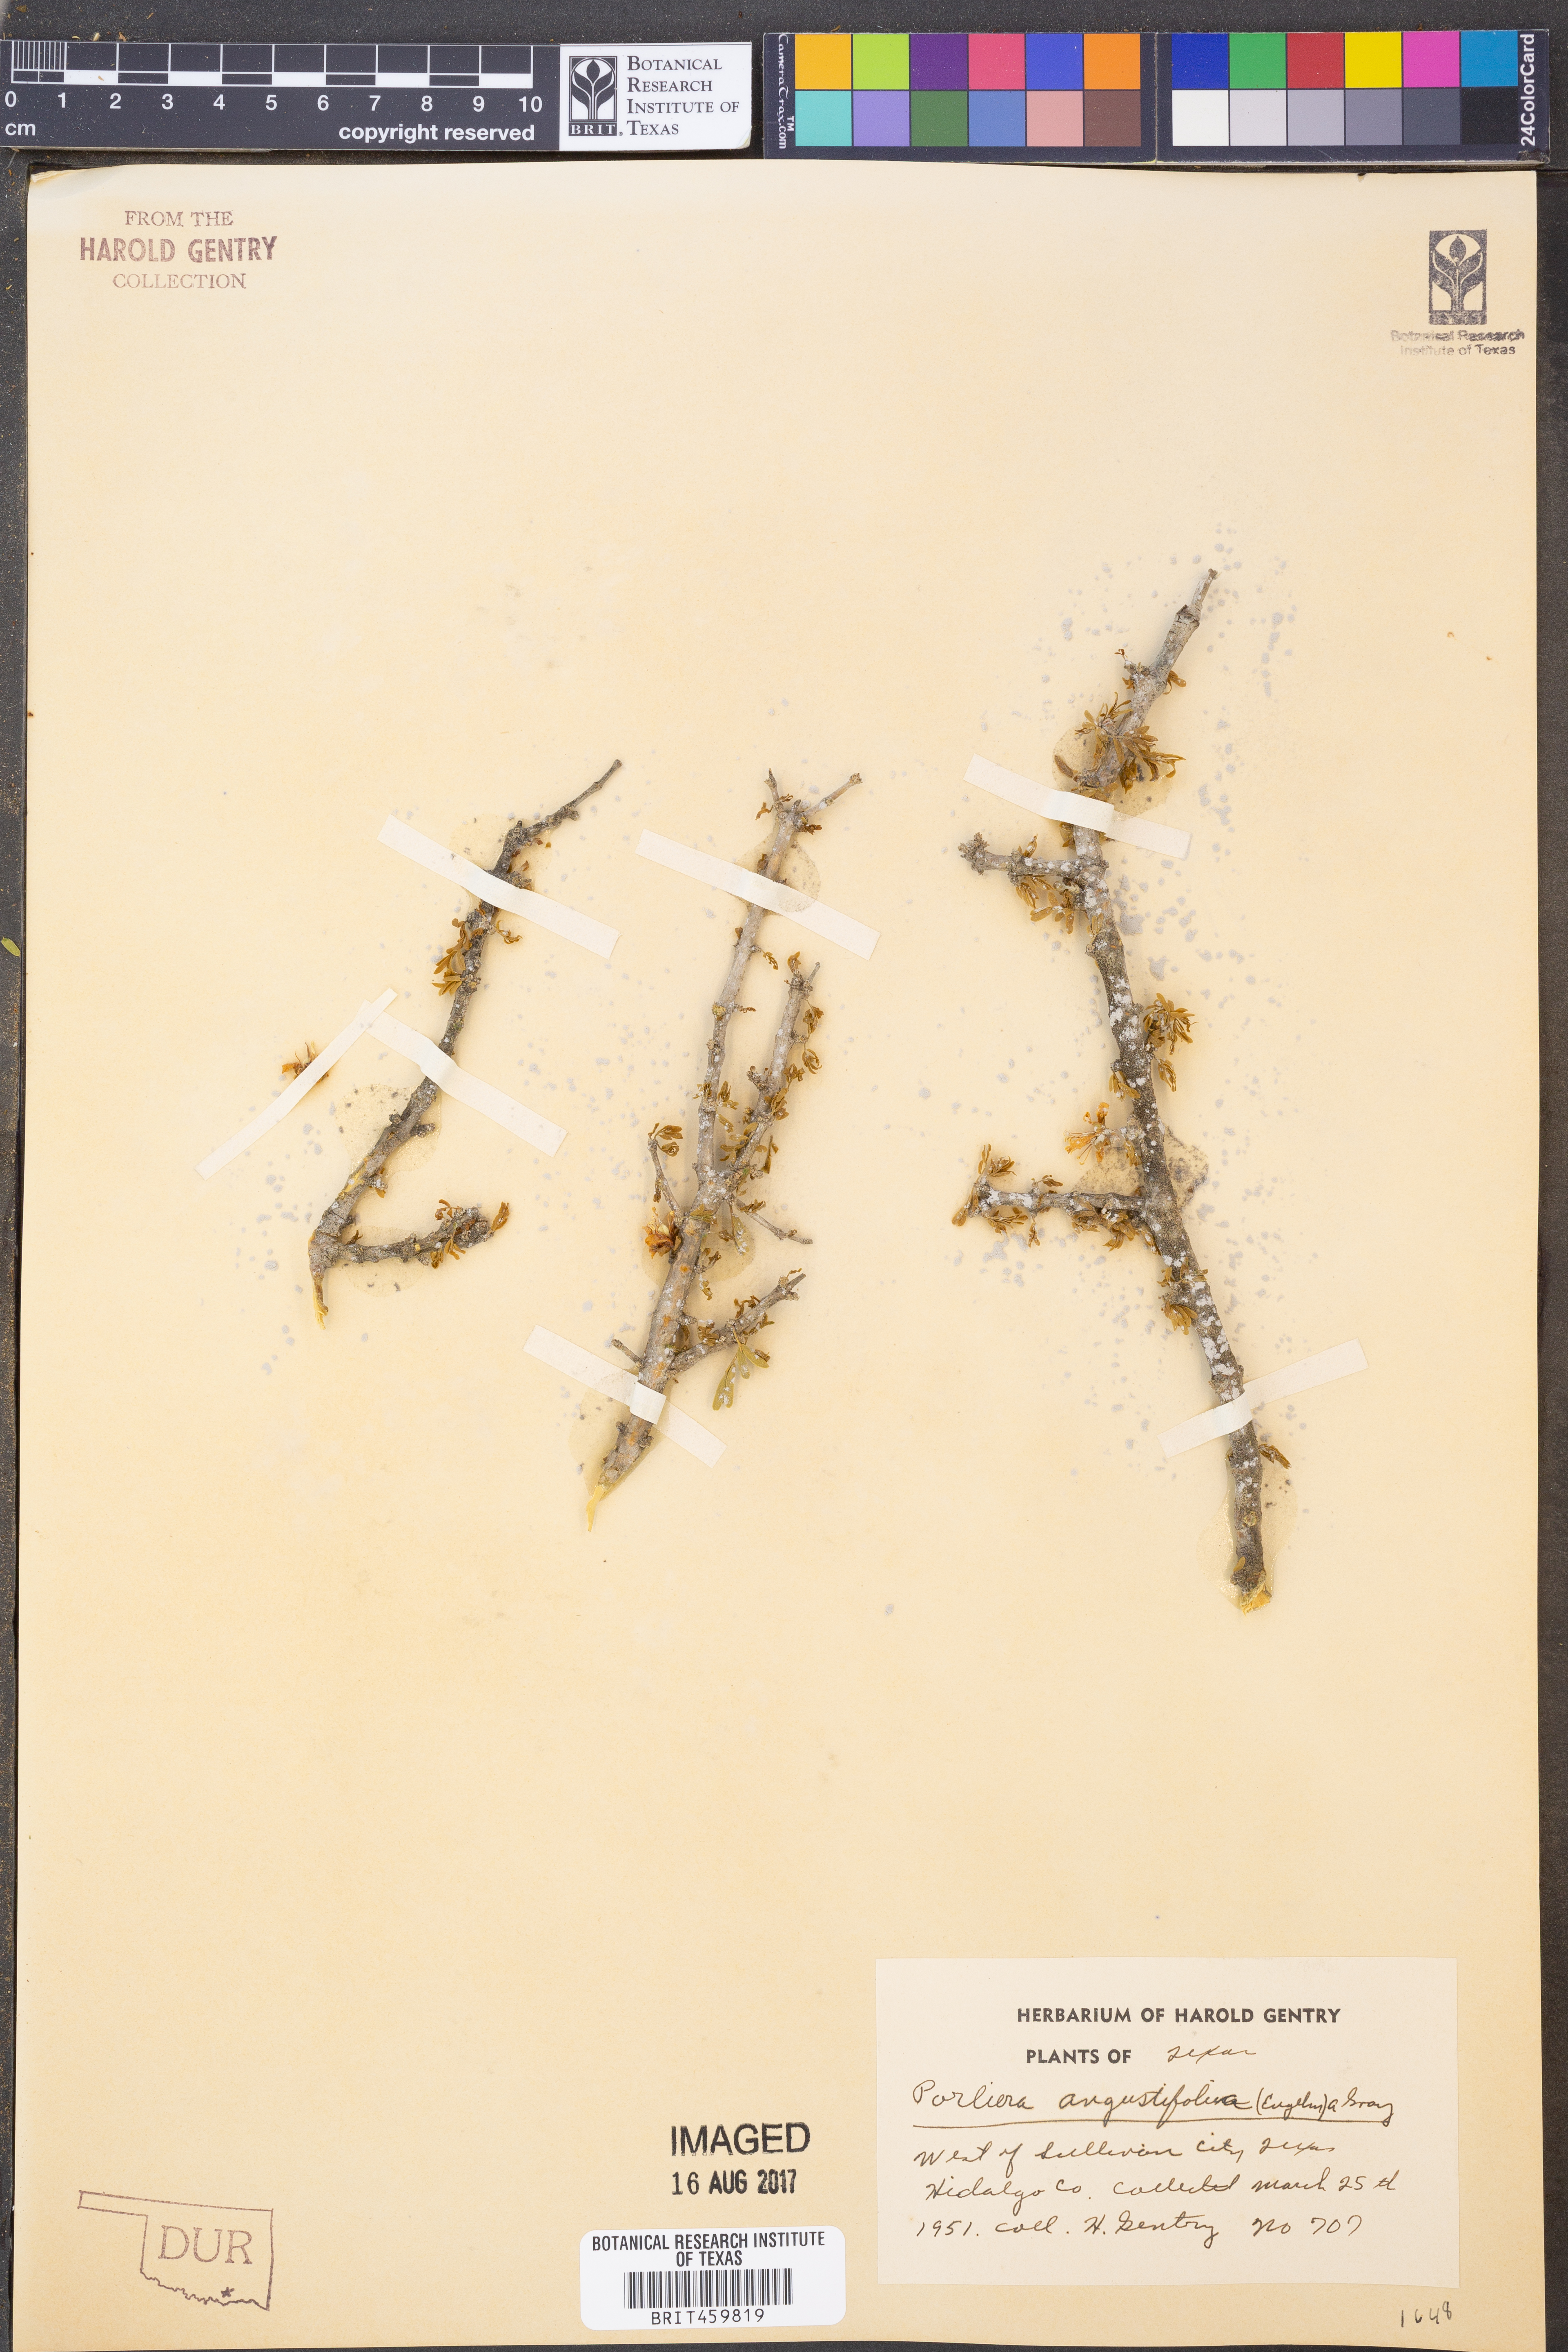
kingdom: Plantae
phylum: Tracheophyta
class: Magnoliopsida
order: Zygophyllales
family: Zygophyllaceae
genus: Porlieria
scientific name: Porlieria angustifolia
